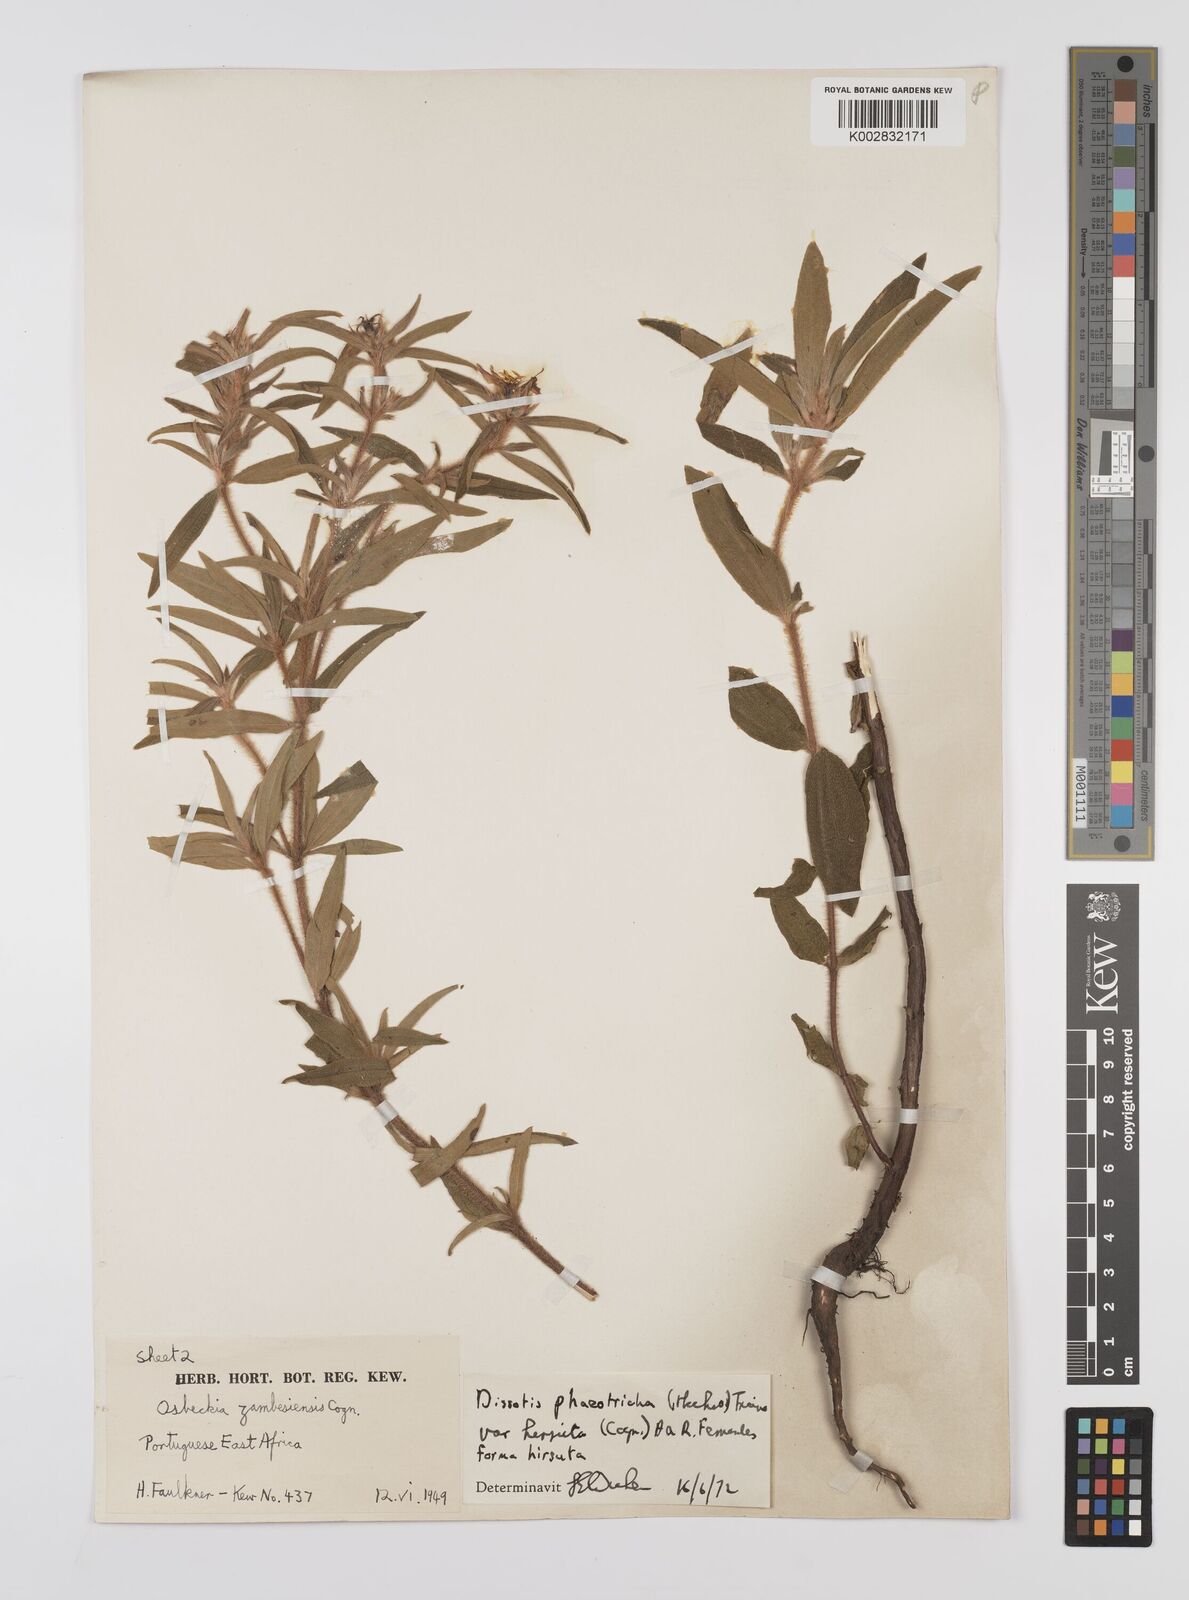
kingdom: Plantae
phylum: Tracheophyta
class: Magnoliopsida
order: Myrtales
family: Melastomataceae
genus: Antherotoma
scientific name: Antherotoma phaeotricha
